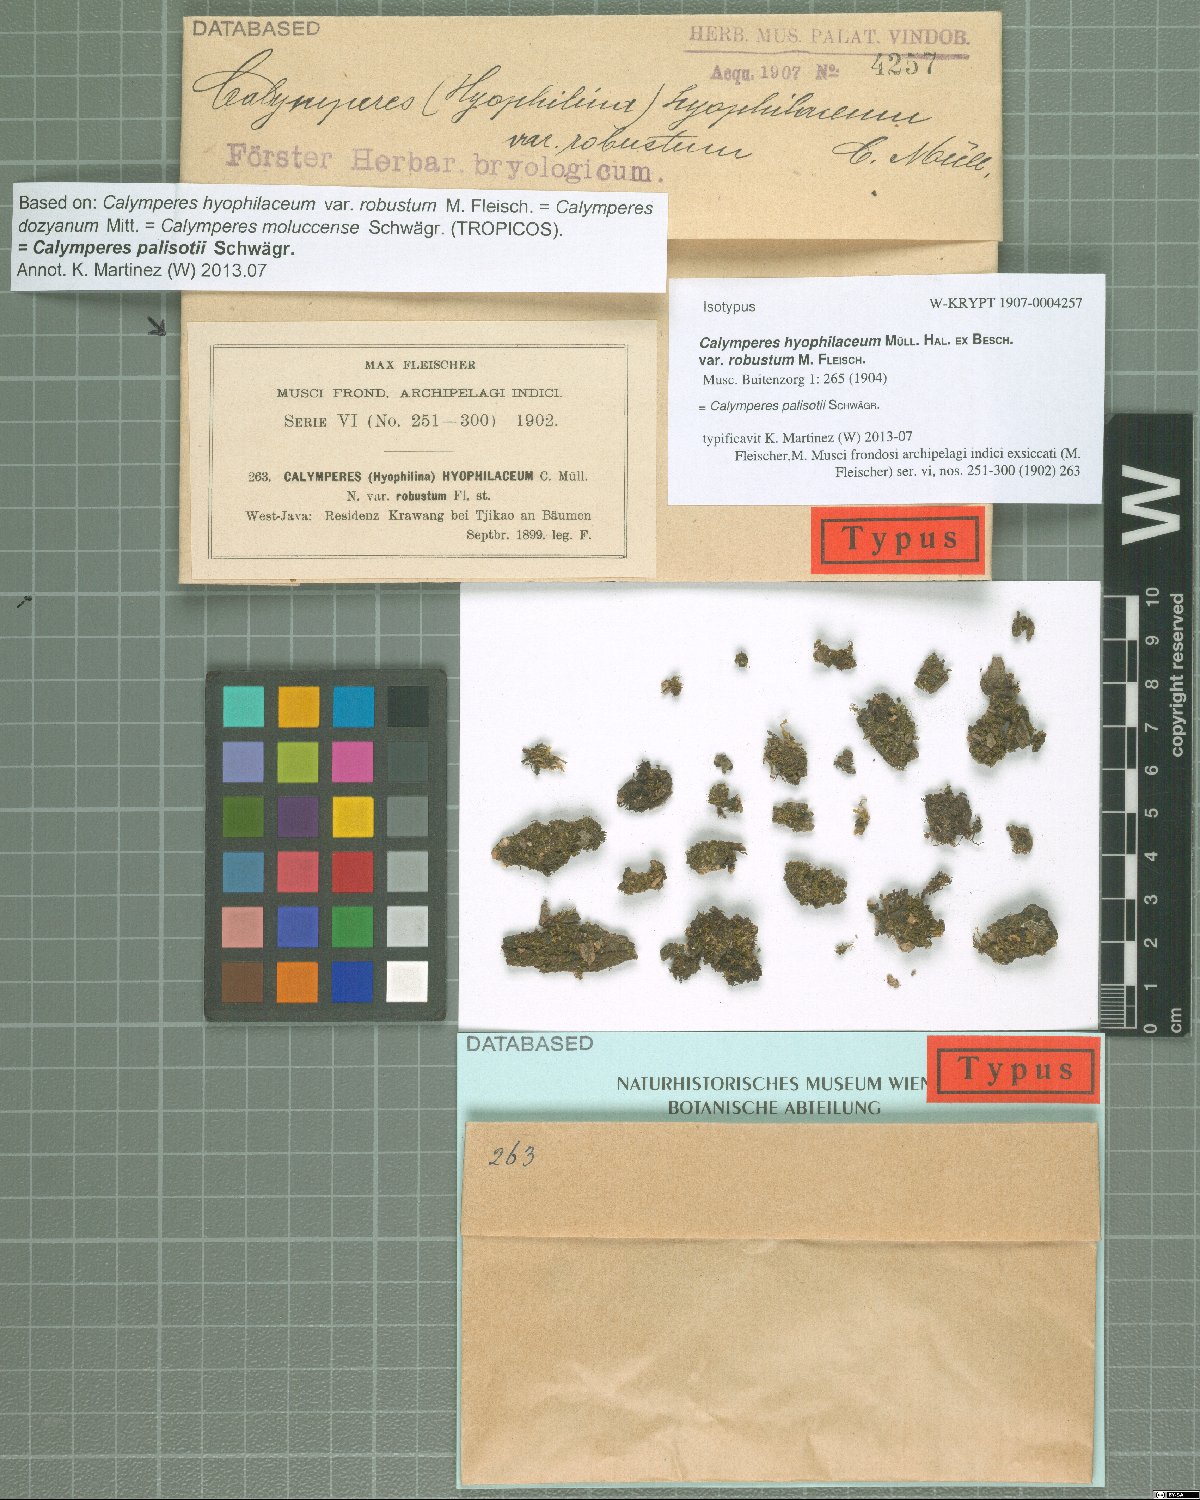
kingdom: Plantae
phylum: Bryophyta
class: Bryopsida
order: Dicranales
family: Calymperaceae
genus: Calymperes
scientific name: Calymperes graeffeanum
